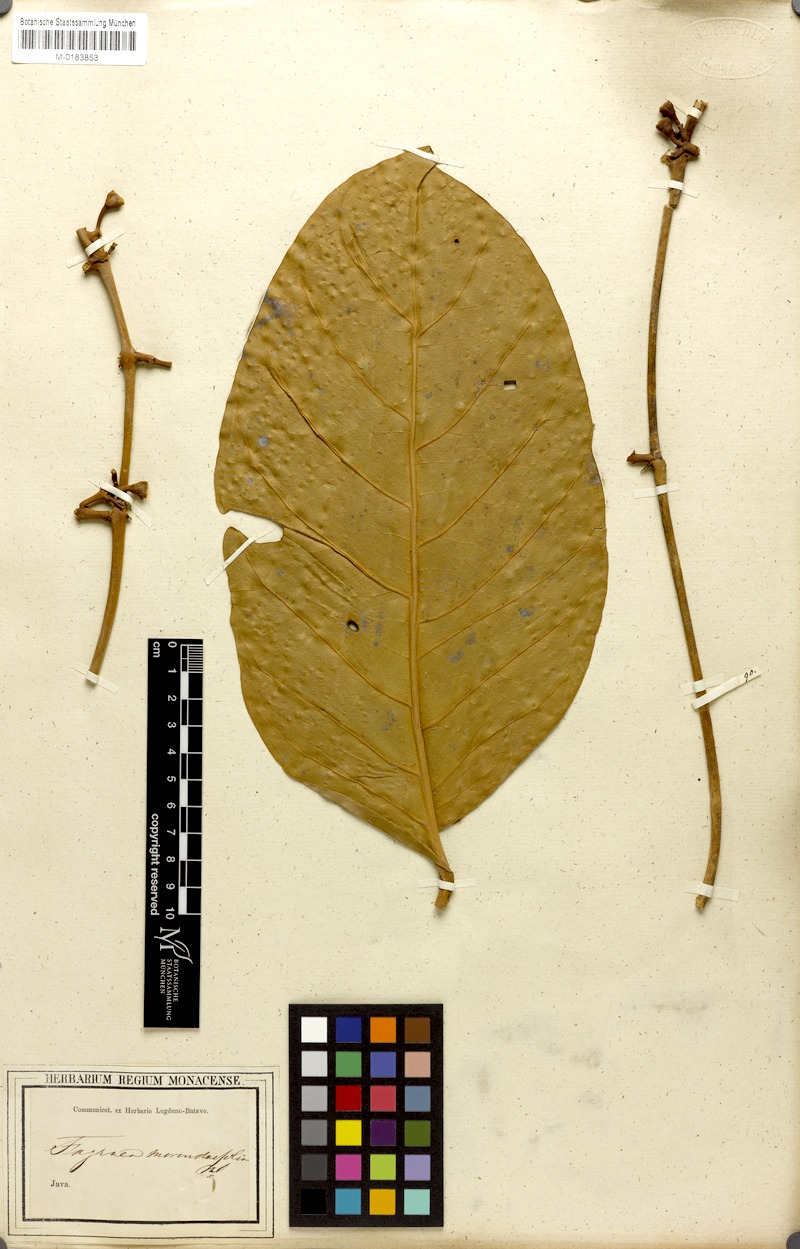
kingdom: Plantae
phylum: Tracheophyta
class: Magnoliopsida
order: Gentianales
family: Gentianaceae
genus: Utania
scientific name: Utania volubilis
